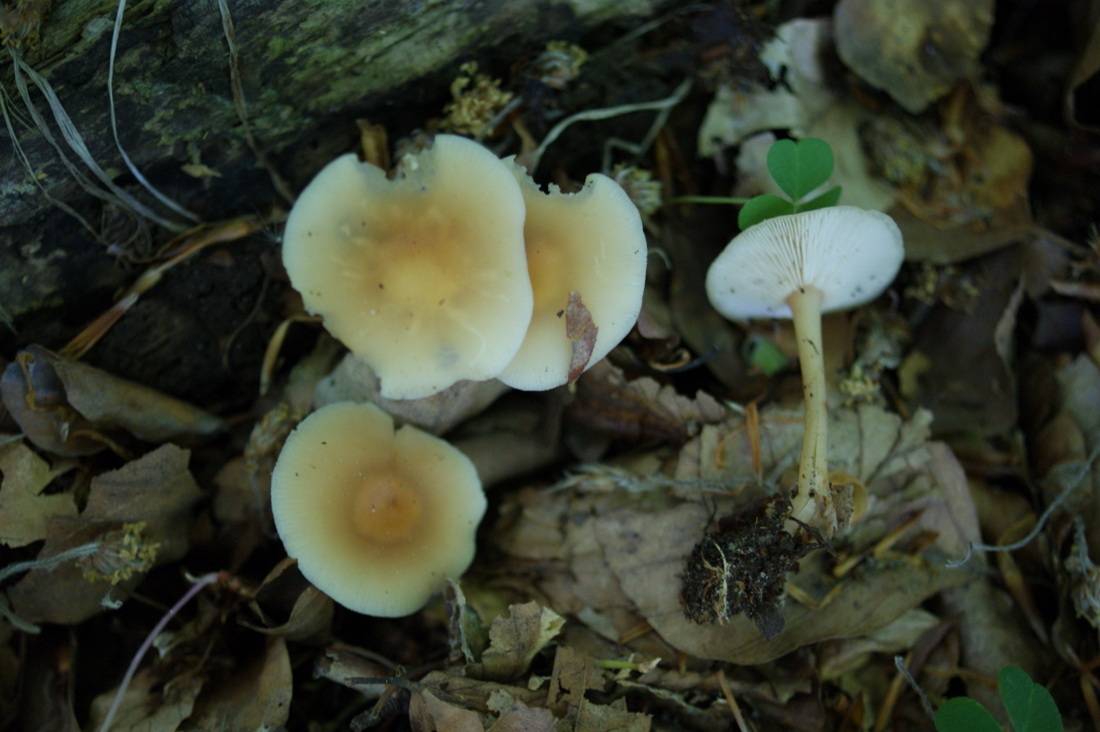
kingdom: Fungi
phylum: Basidiomycota
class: Agaricomycetes
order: Agaricales
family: Omphalotaceae
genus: Gymnopus
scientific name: Gymnopus aquosus
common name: bleg fladhat
